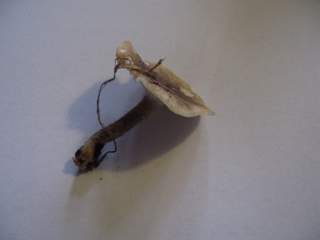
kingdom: Fungi
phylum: Basidiomycota
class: Agaricomycetes
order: Polyporales
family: Polyporaceae
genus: Lentinus
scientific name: Lentinus substrictus
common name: forårs-stilkporesvamp
